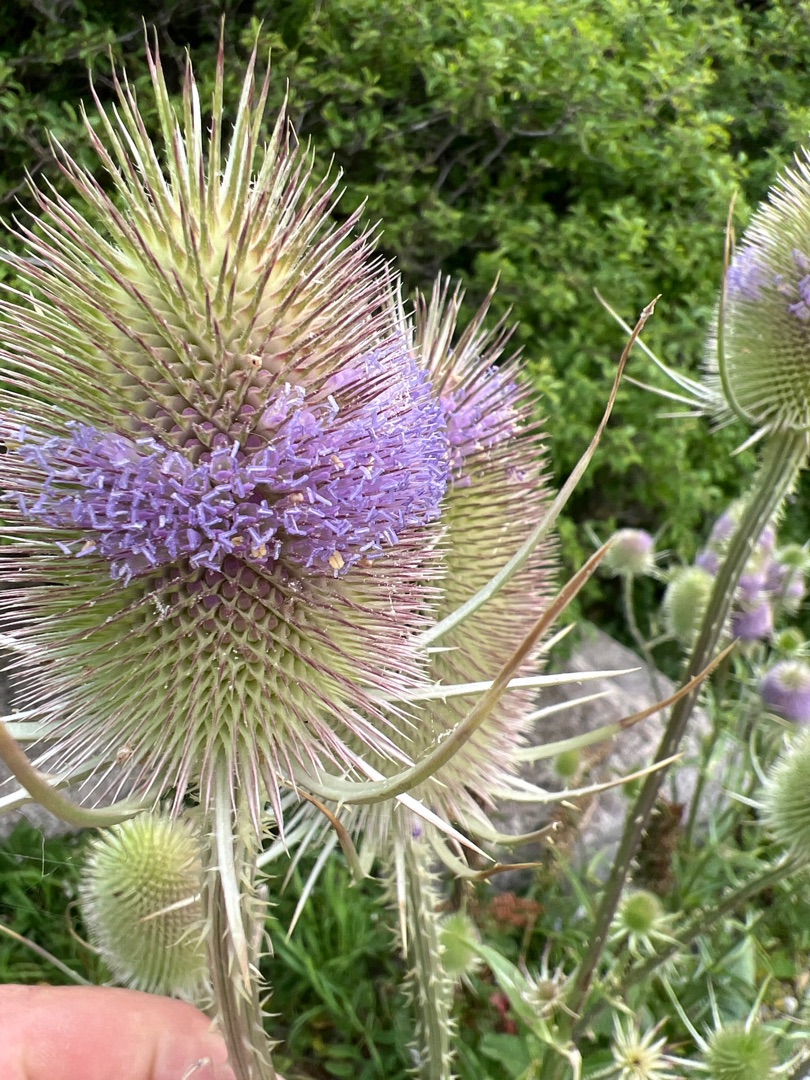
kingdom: Plantae
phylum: Tracheophyta
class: Magnoliopsida
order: Dipsacales
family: Caprifoliaceae
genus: Dipsacus
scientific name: Dipsacus fullonum
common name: Gærde-kartebolle
